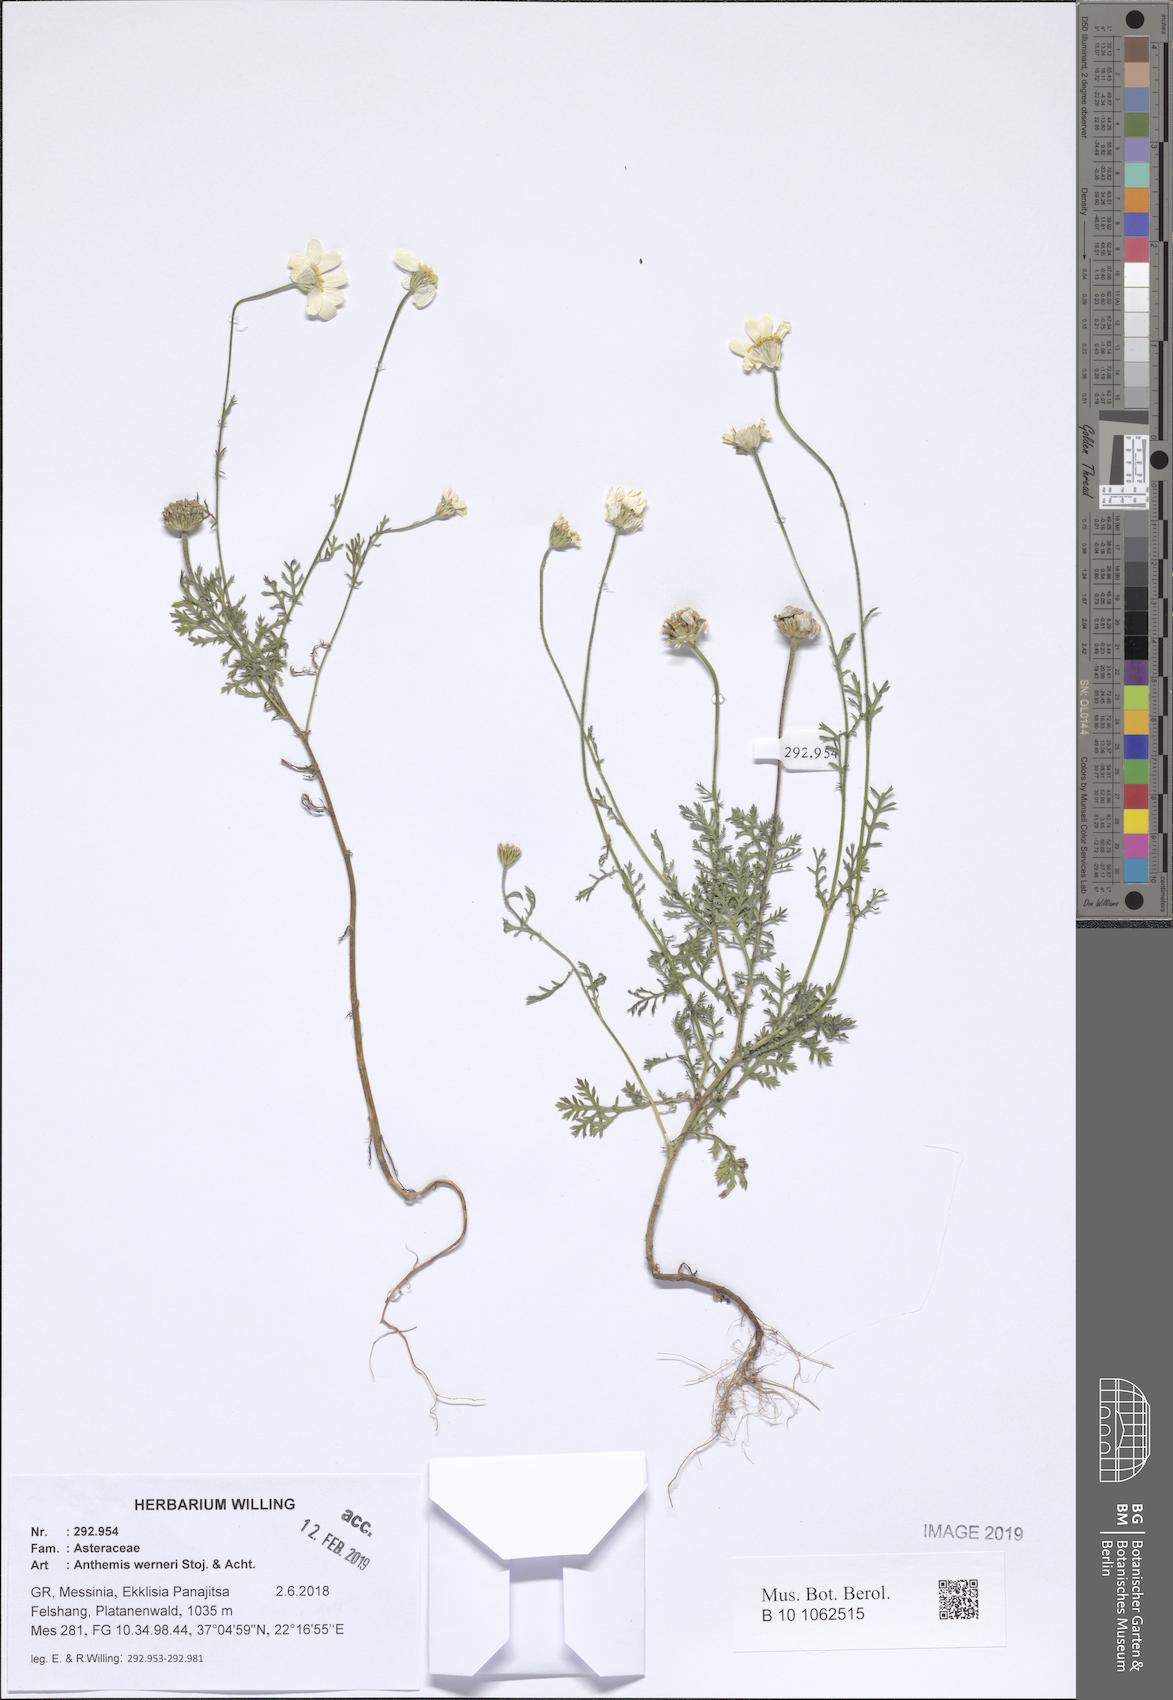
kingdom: Plantae
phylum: Tracheophyta
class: Magnoliopsida
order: Asterales
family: Asteraceae
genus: Anthemis
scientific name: Anthemis werneri
